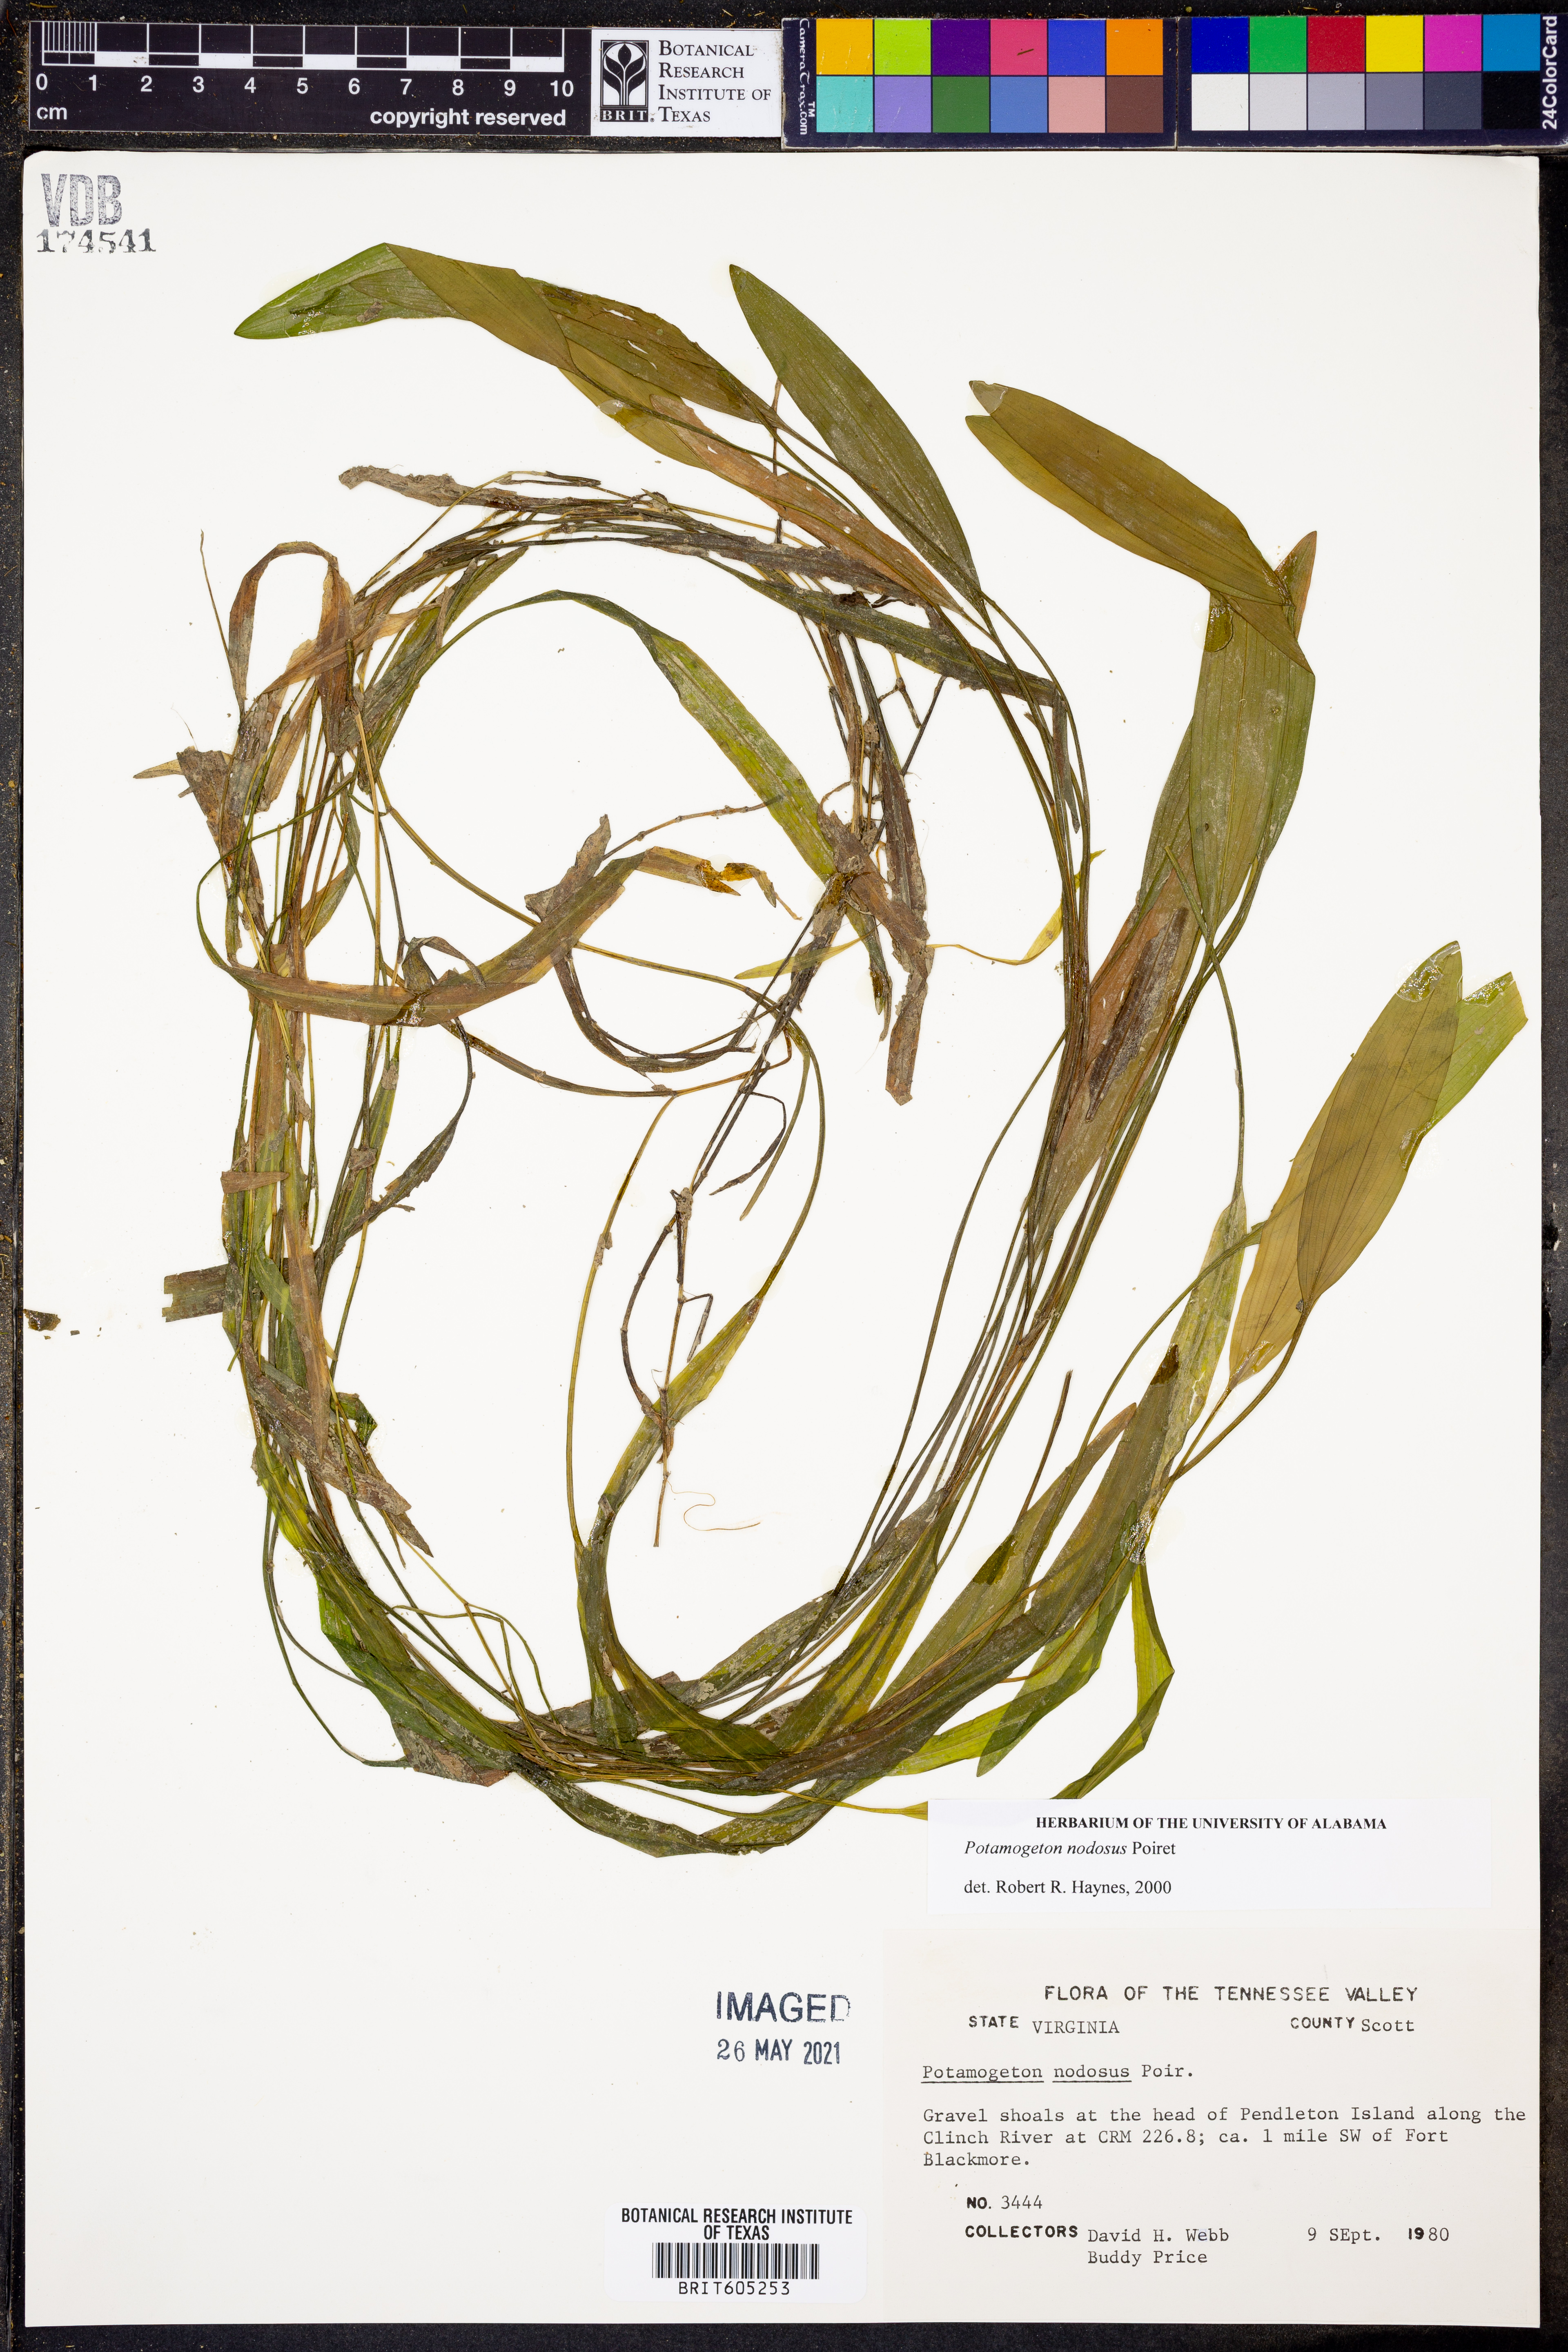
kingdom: Plantae
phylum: Tracheophyta
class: Liliopsida
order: Alismatales
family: Potamogetonaceae
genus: Potamogeton
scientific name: Potamogeton nodosus
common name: Loddon pondweed
